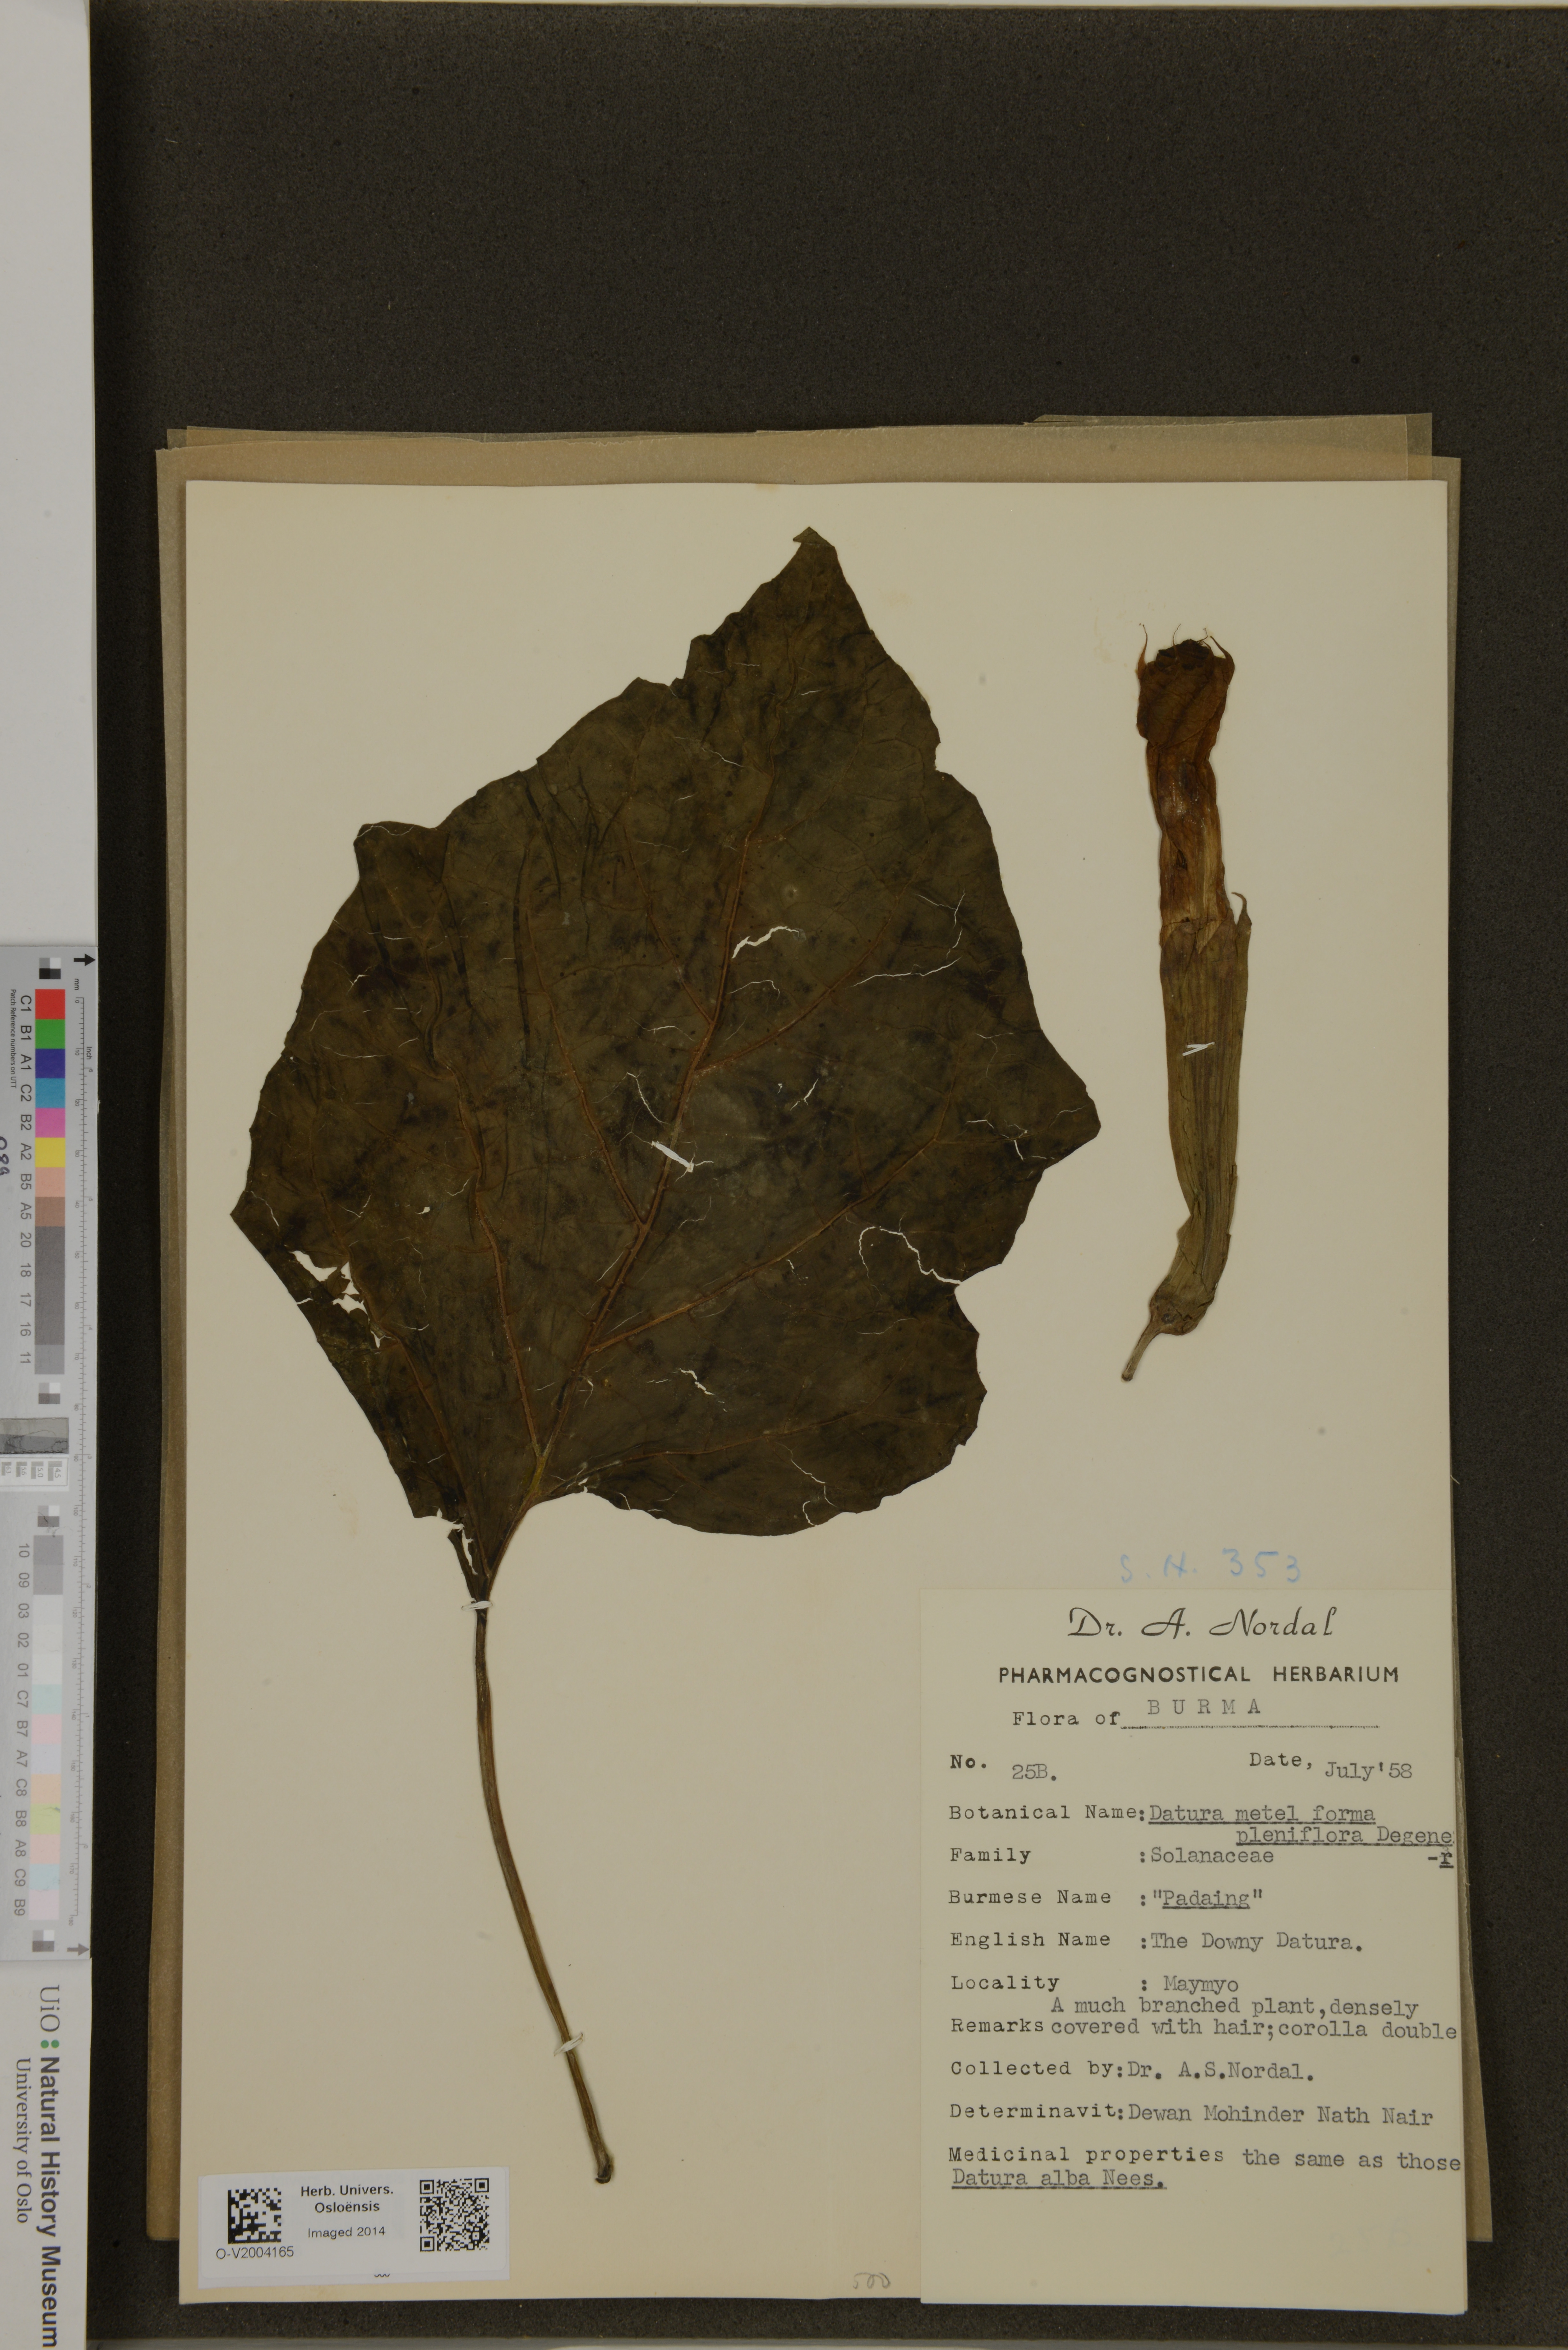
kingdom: Plantae
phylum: Tracheophyta
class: Magnoliopsida
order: Solanales
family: Solanaceae
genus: Datura
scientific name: Datura metel
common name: Jimsonweed
